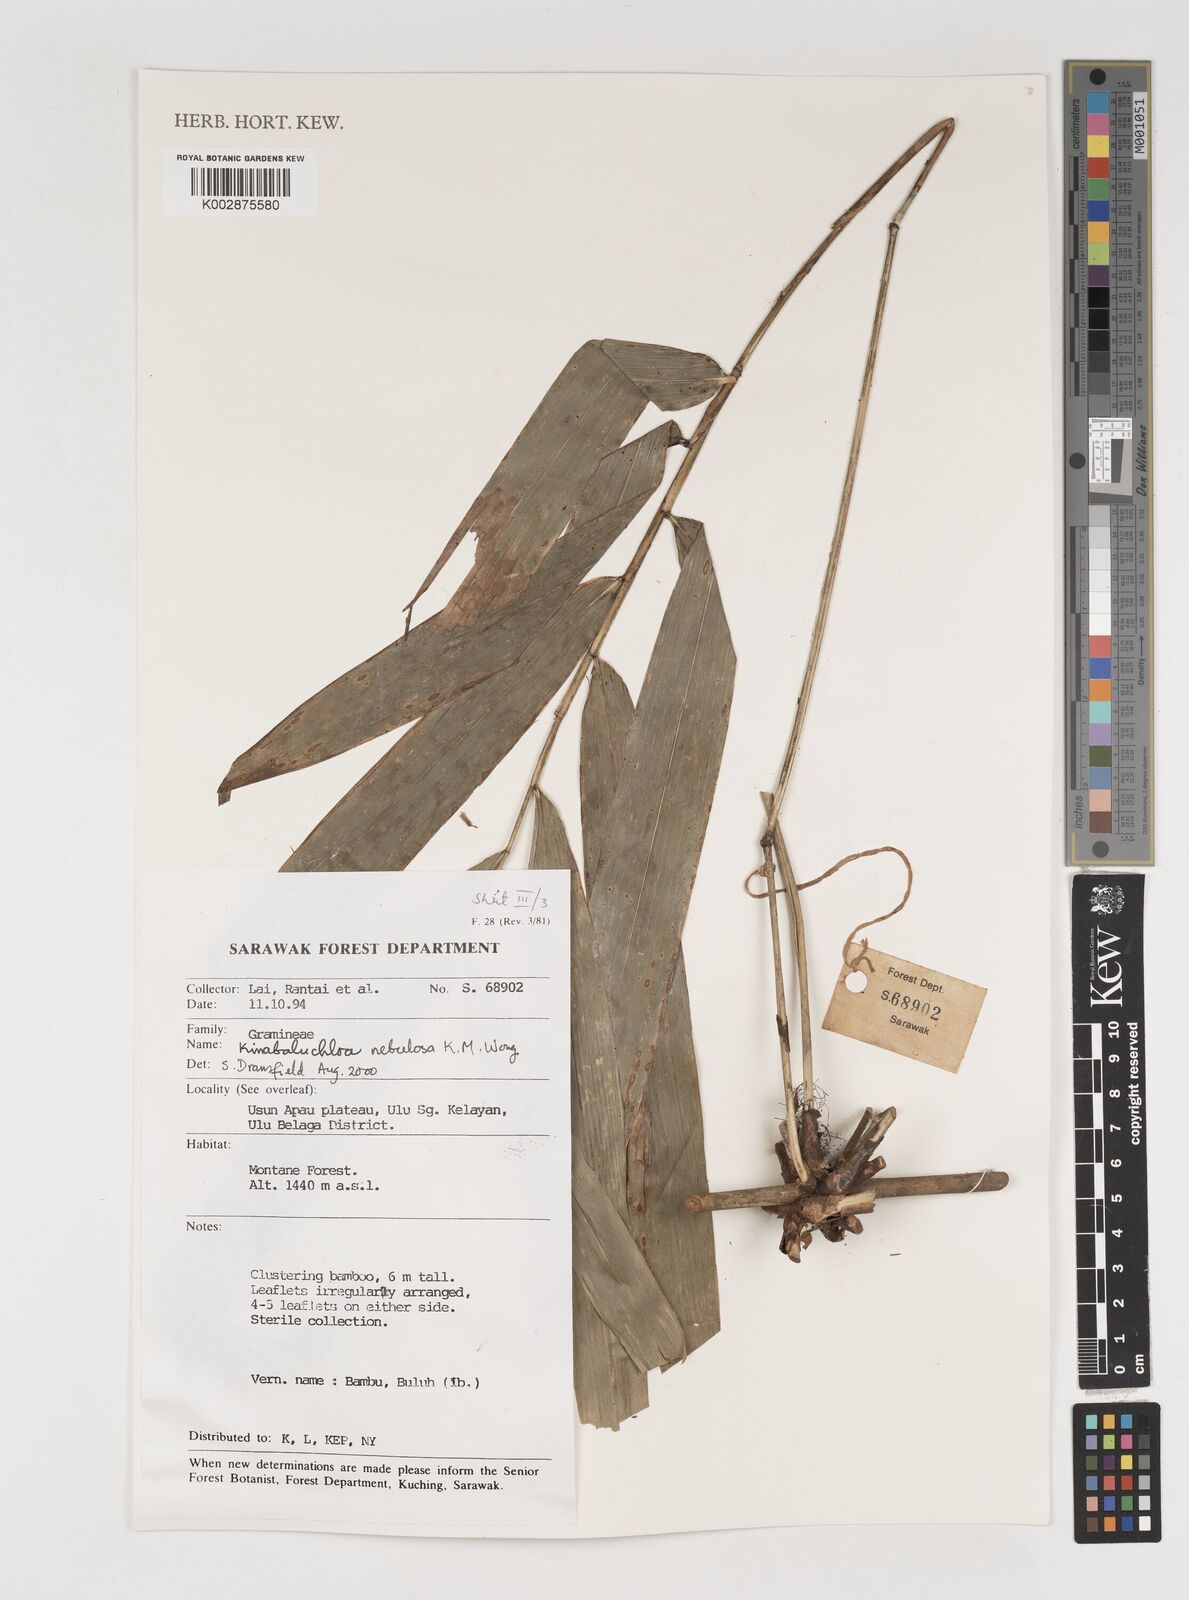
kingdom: Plantae
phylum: Tracheophyta
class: Liliopsida
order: Poales
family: Poaceae
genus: Kinabaluchloa
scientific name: Kinabaluchloa nebulosa
